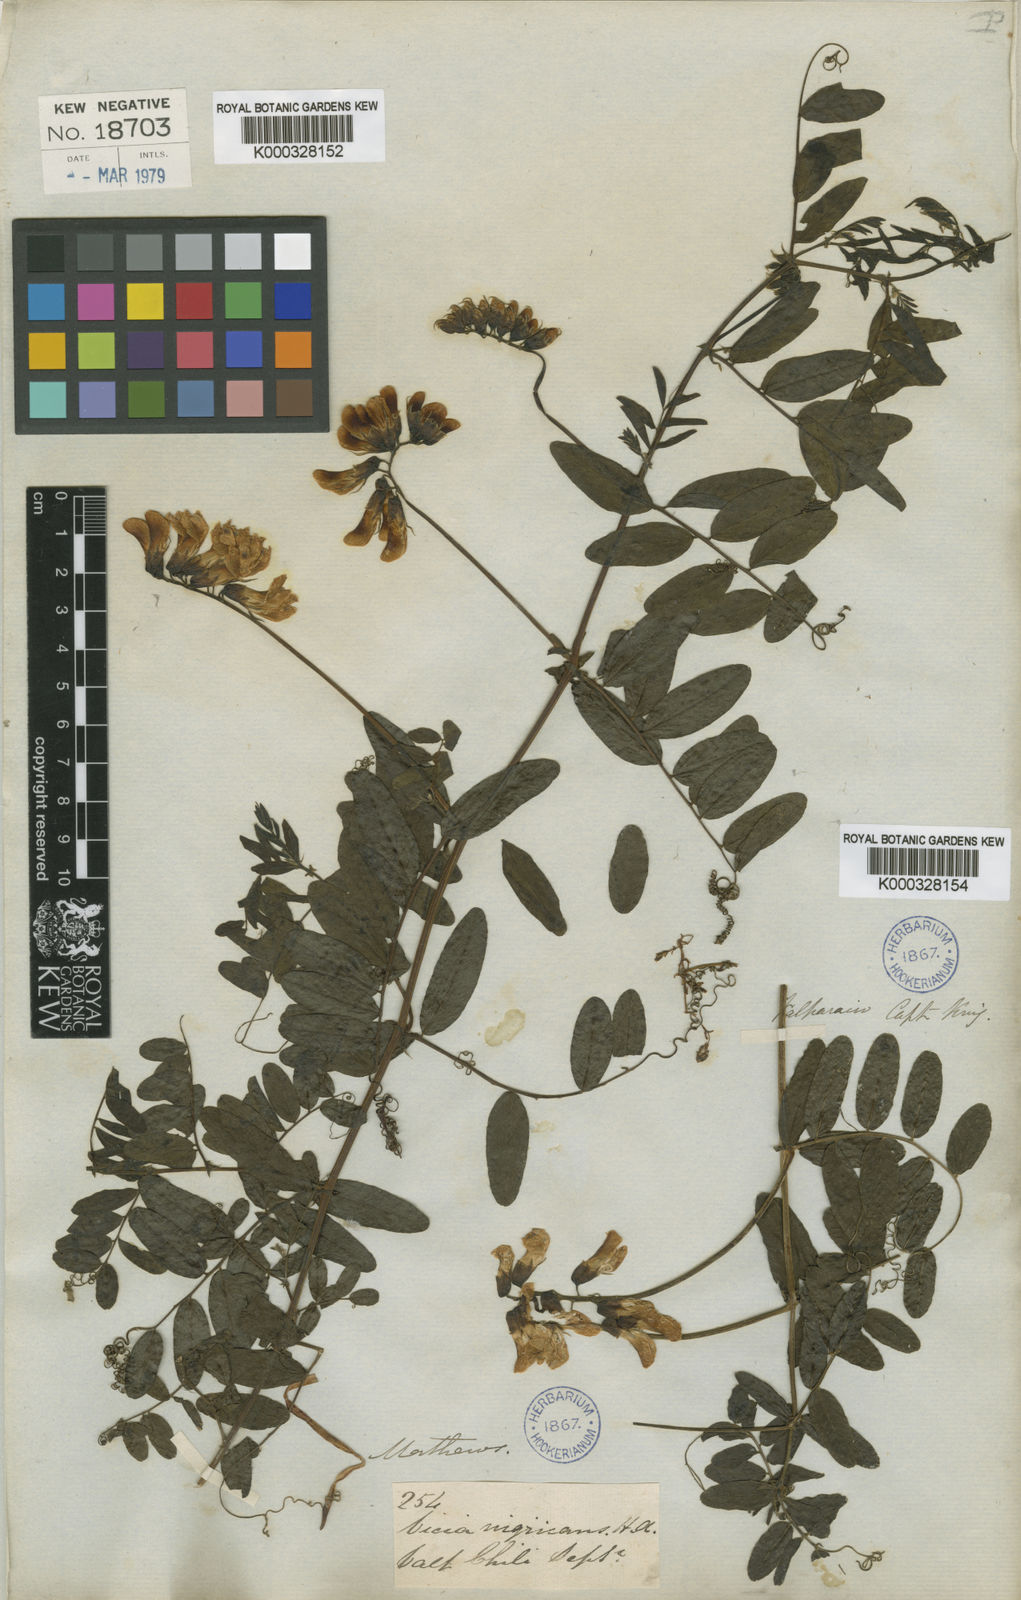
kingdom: Plantae
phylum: Tracheophyta
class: Magnoliopsida
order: Fabales
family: Fabaceae
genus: Vicia
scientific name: Vicia nigricans
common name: Black vetch
